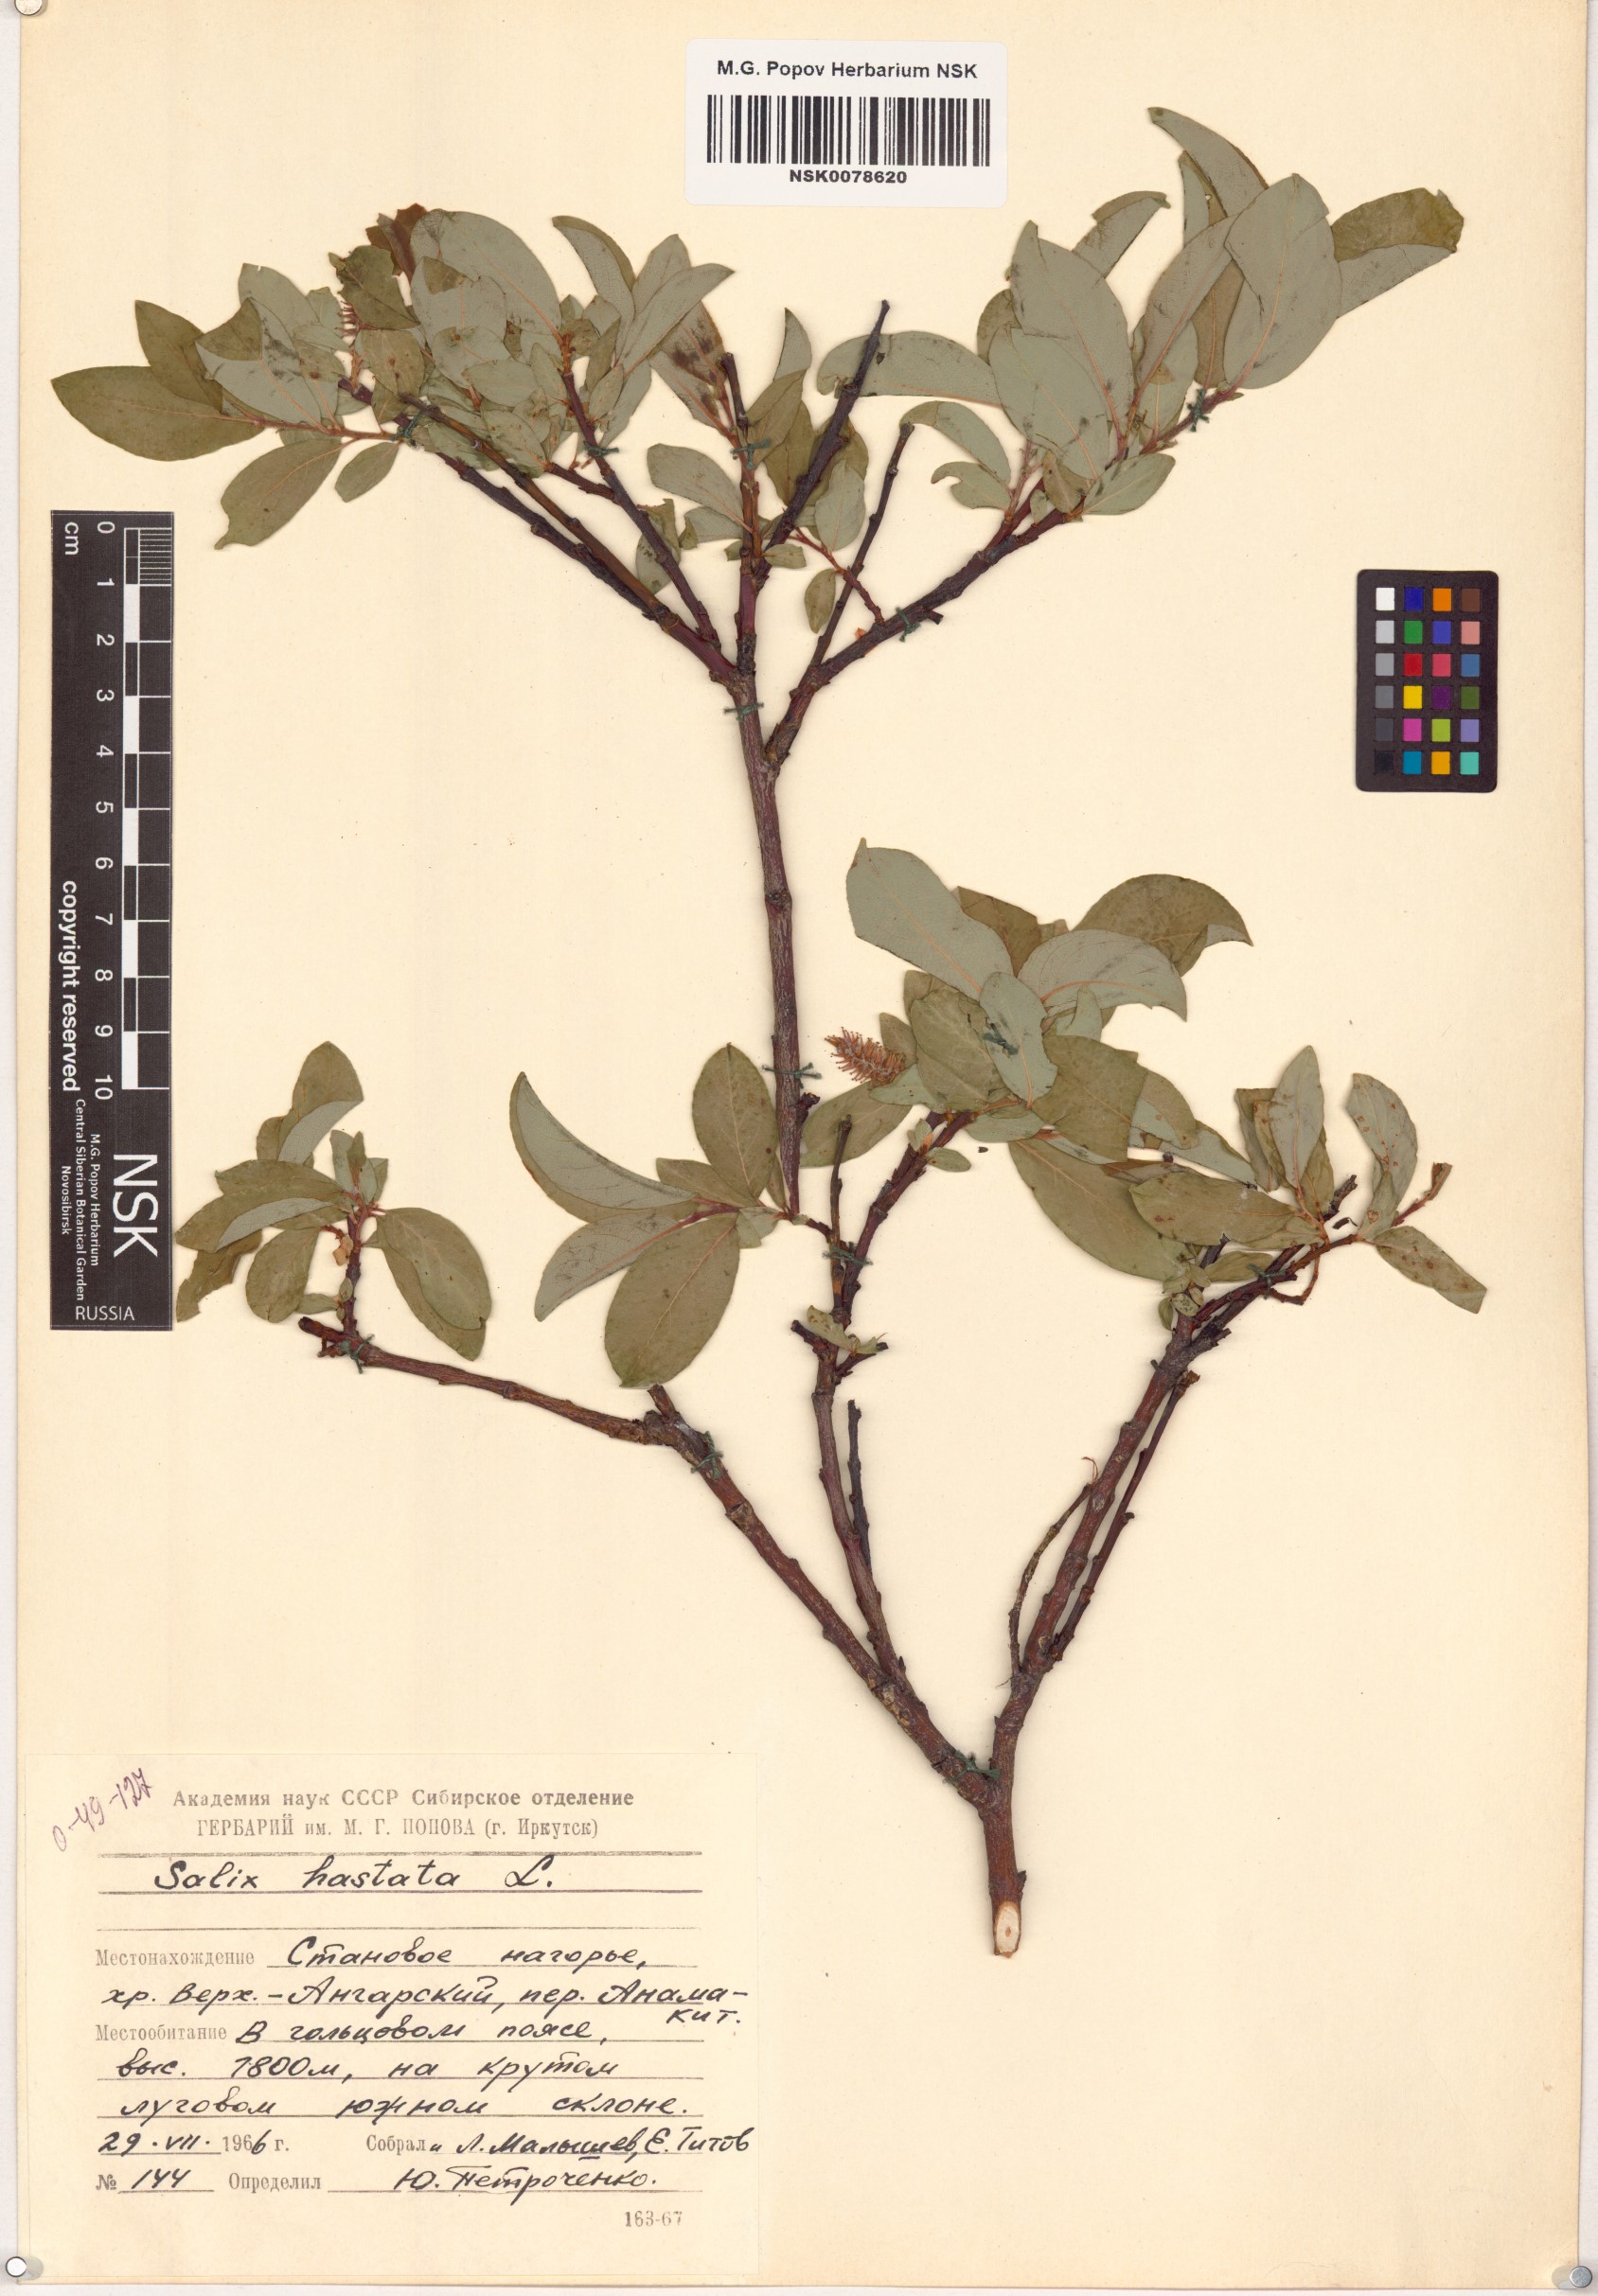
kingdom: Plantae
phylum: Tracheophyta
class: Magnoliopsida
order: Malpighiales
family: Salicaceae
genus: Salix
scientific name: Salix hastata
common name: Halberd willow
